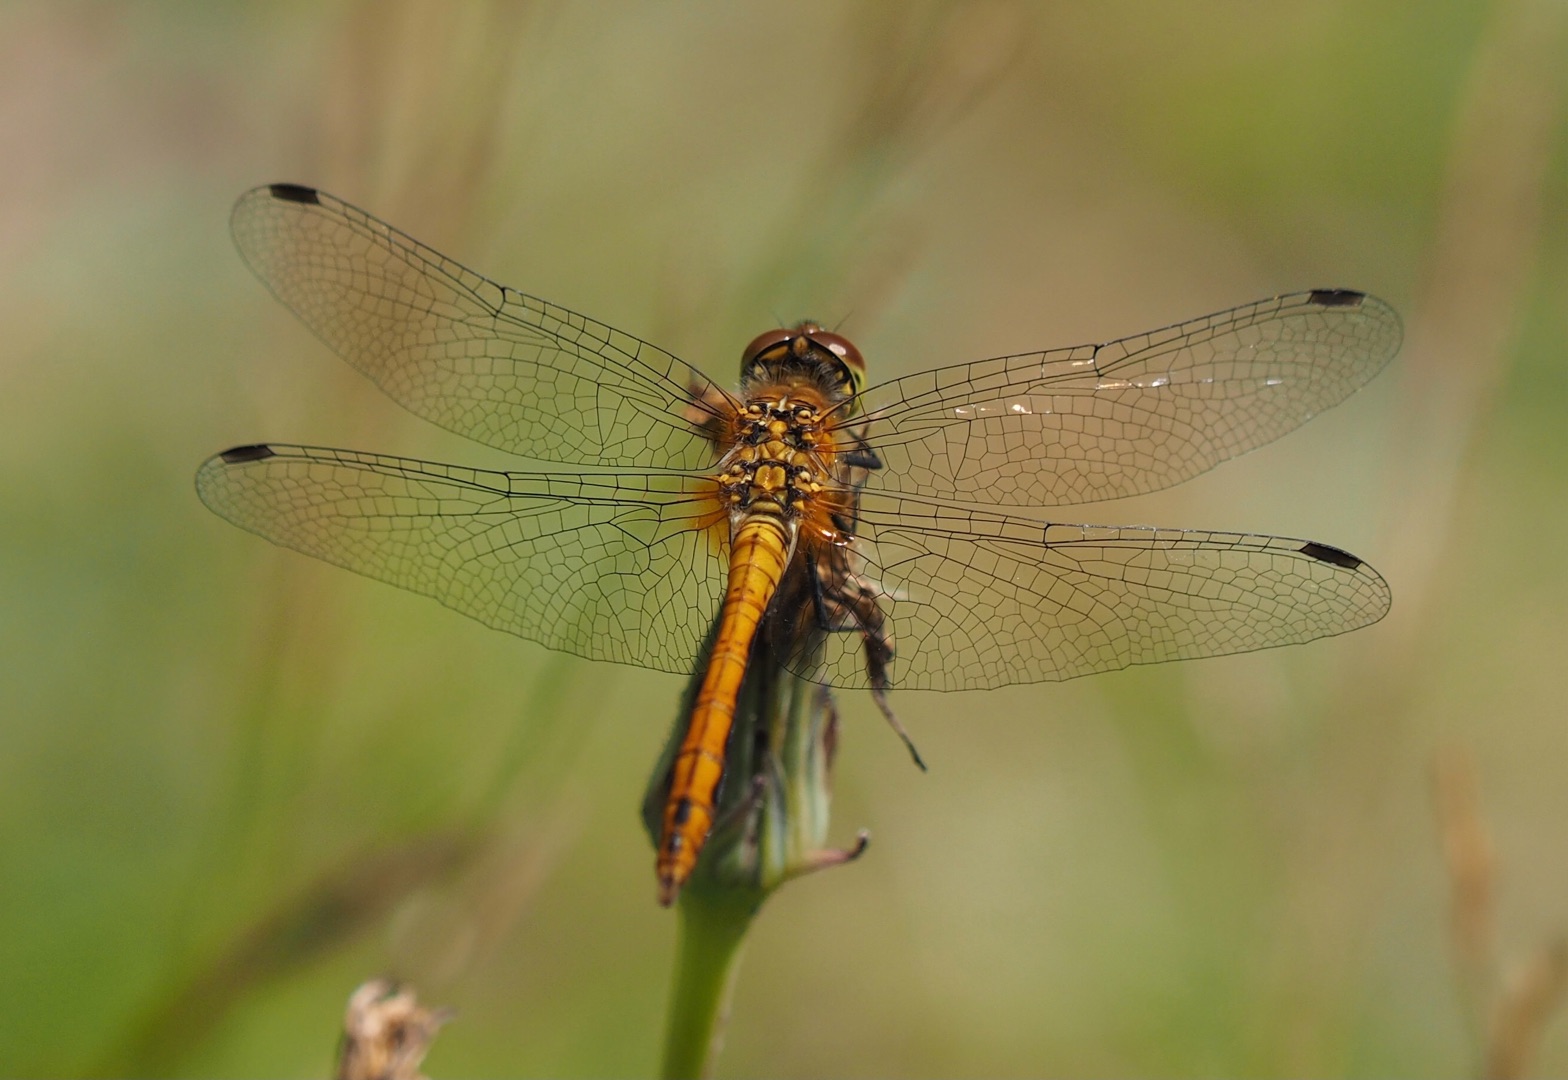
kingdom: Animalia
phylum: Arthropoda
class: Insecta
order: Odonata
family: Libellulidae
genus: Sympetrum
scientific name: Sympetrum sanguineum
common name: Blodrød hedelibel
